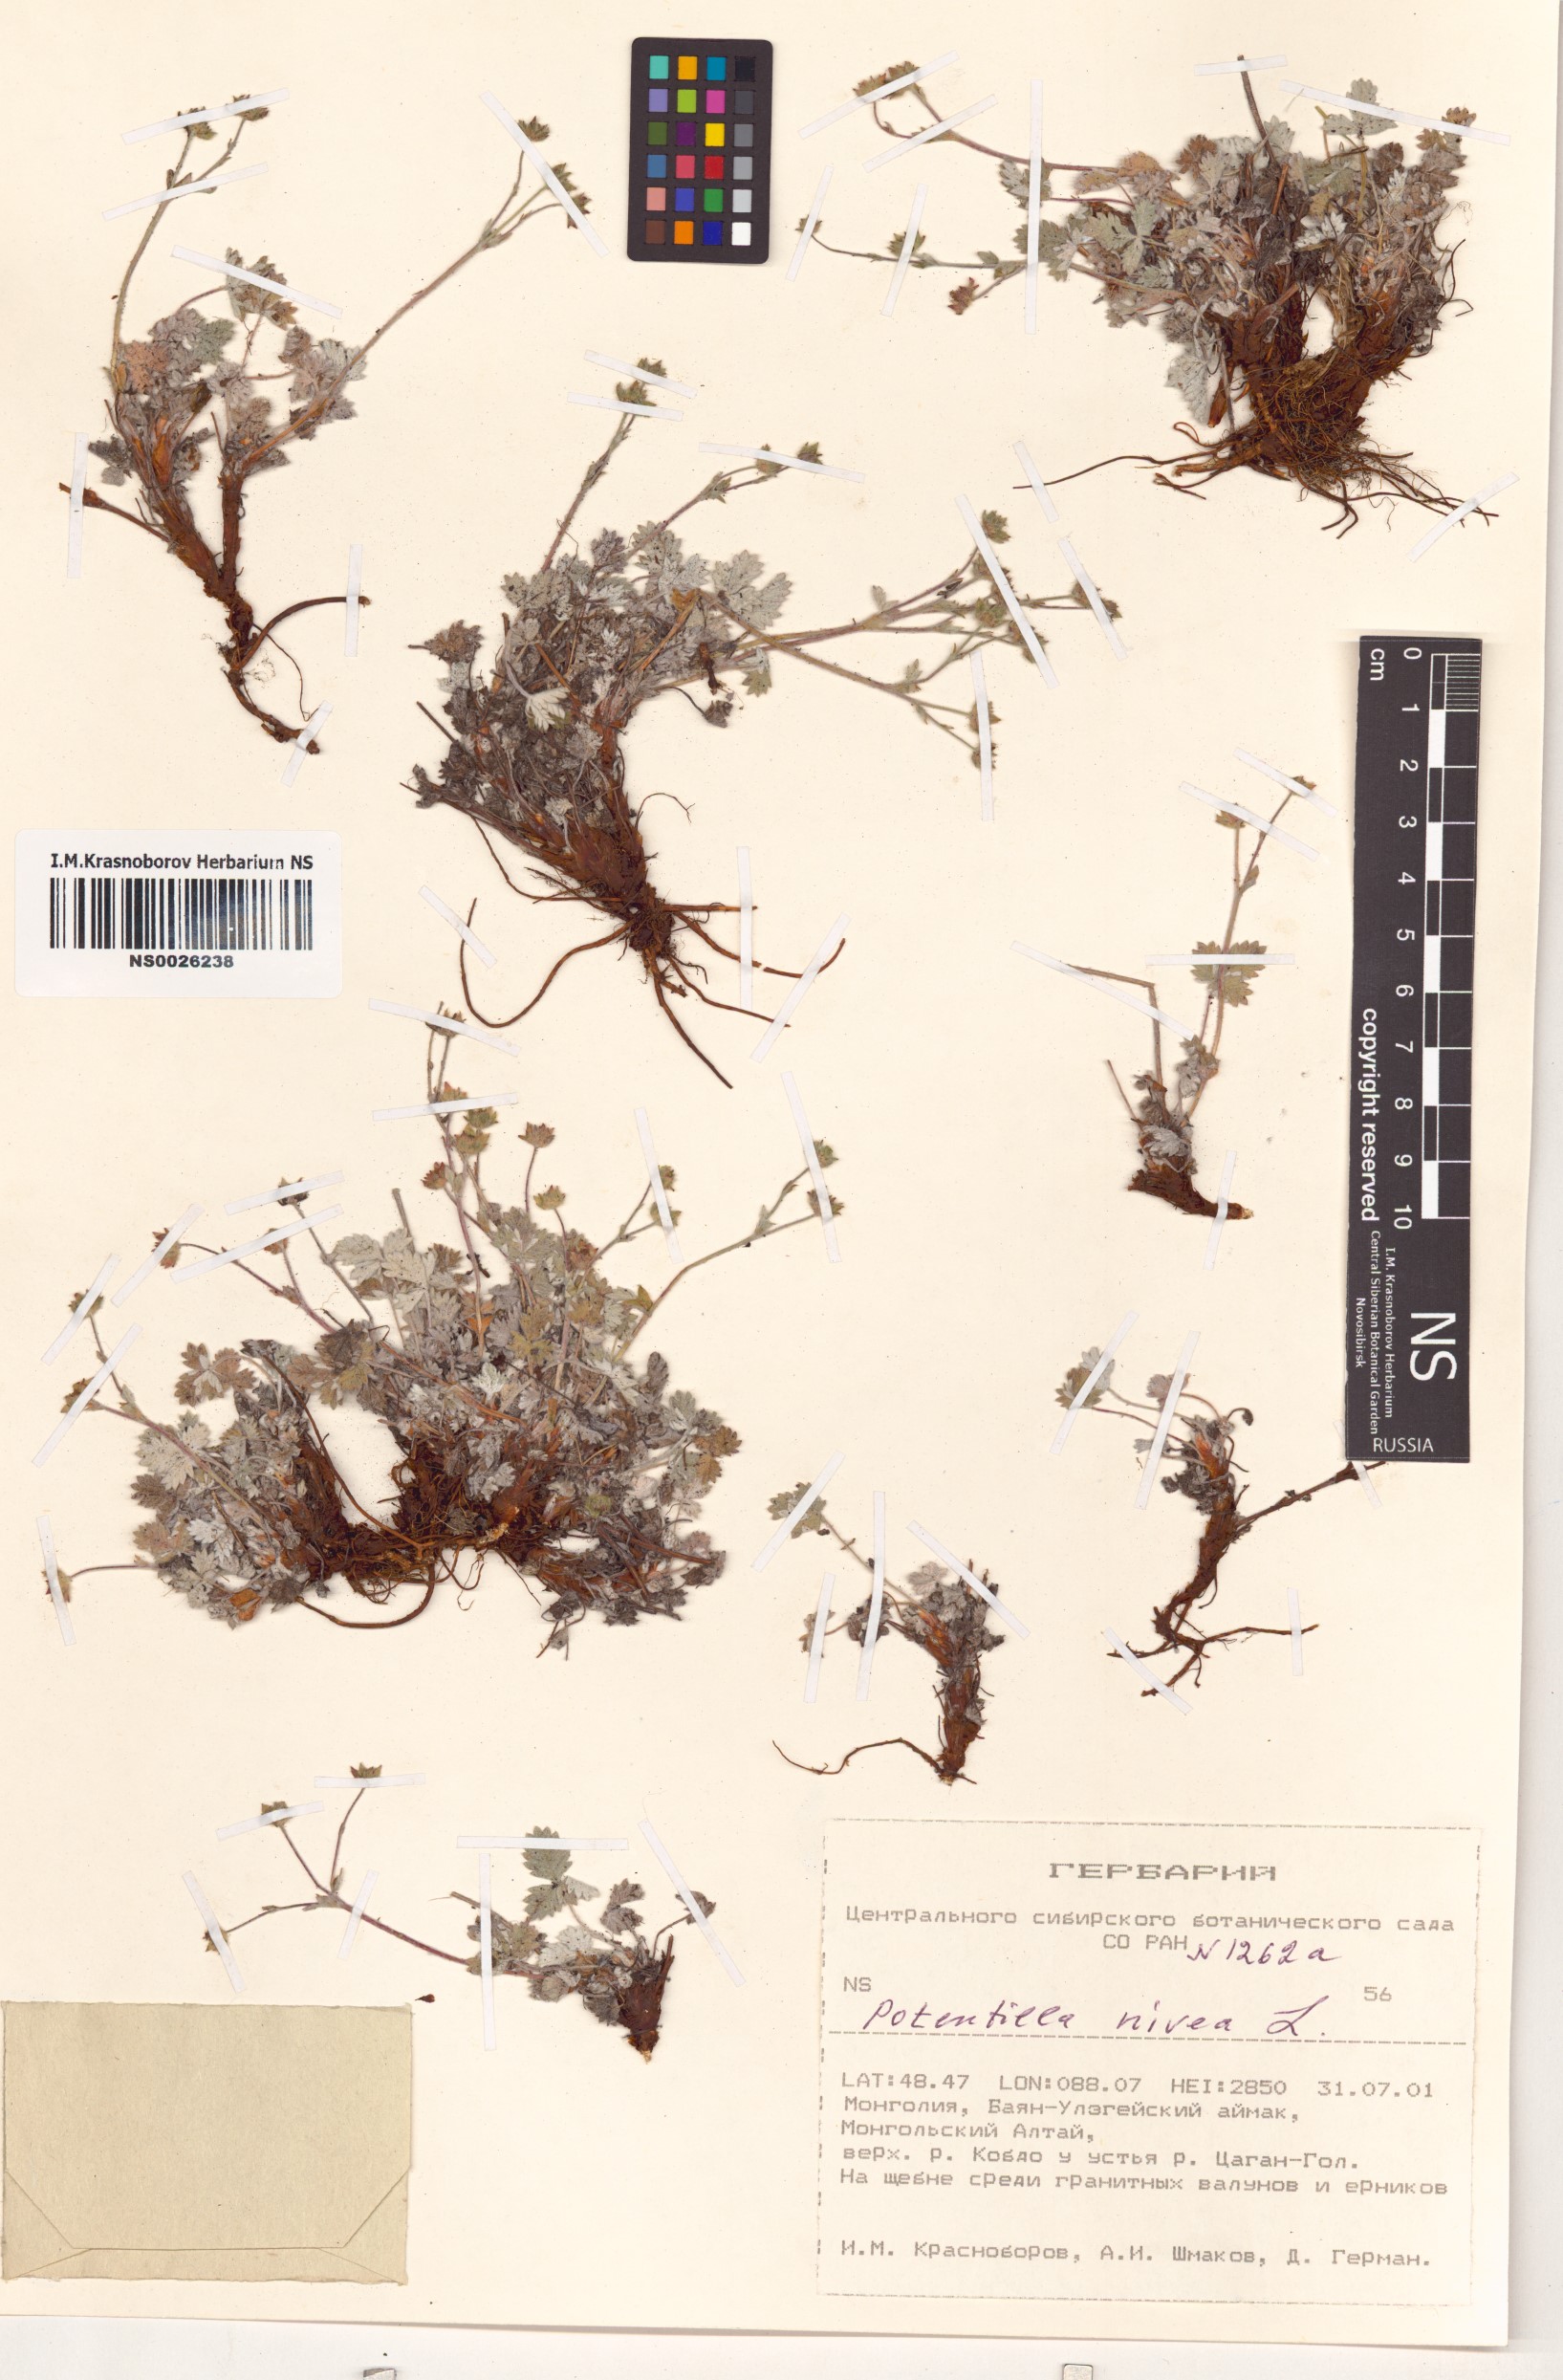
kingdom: Plantae
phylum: Tracheophyta
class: Magnoliopsida
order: Rosales
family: Rosaceae
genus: Potentilla
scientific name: Potentilla nivea
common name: Snow cinquefoil
